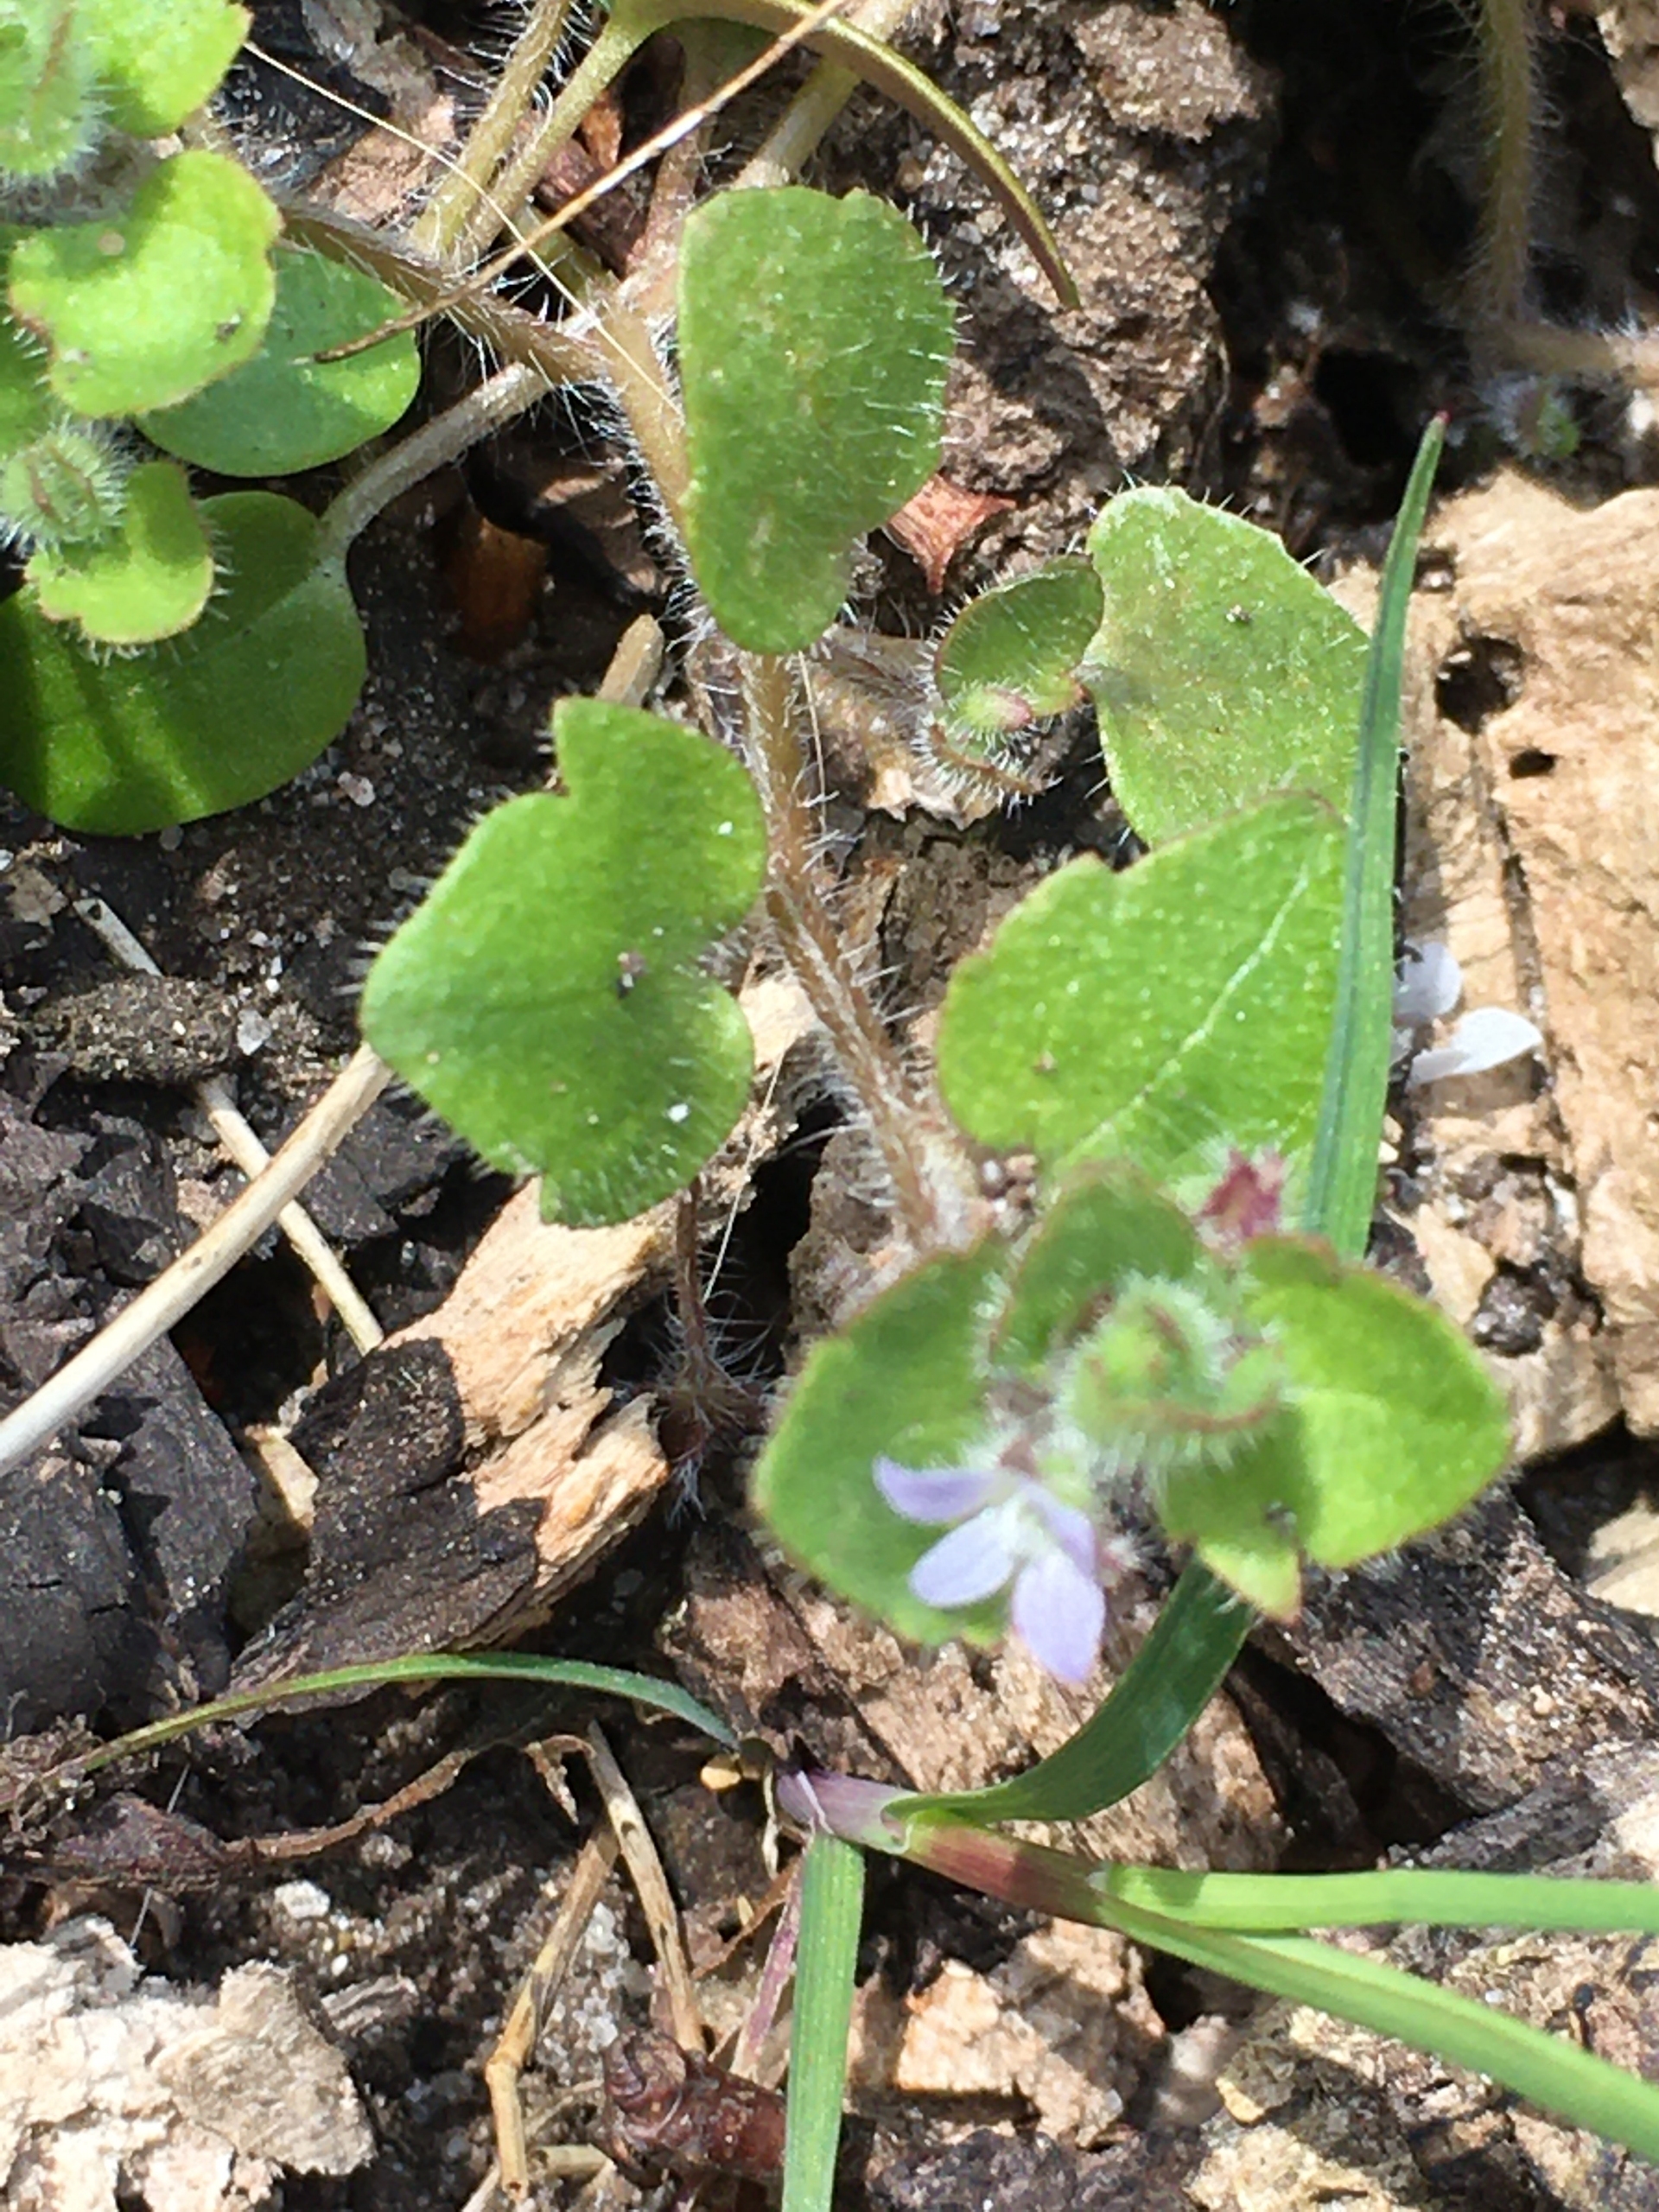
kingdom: Plantae
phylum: Tracheophyta
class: Magnoliopsida
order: Lamiales
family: Plantaginaceae
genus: Veronica
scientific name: Veronica sublobata
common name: Krat-ærenpris
